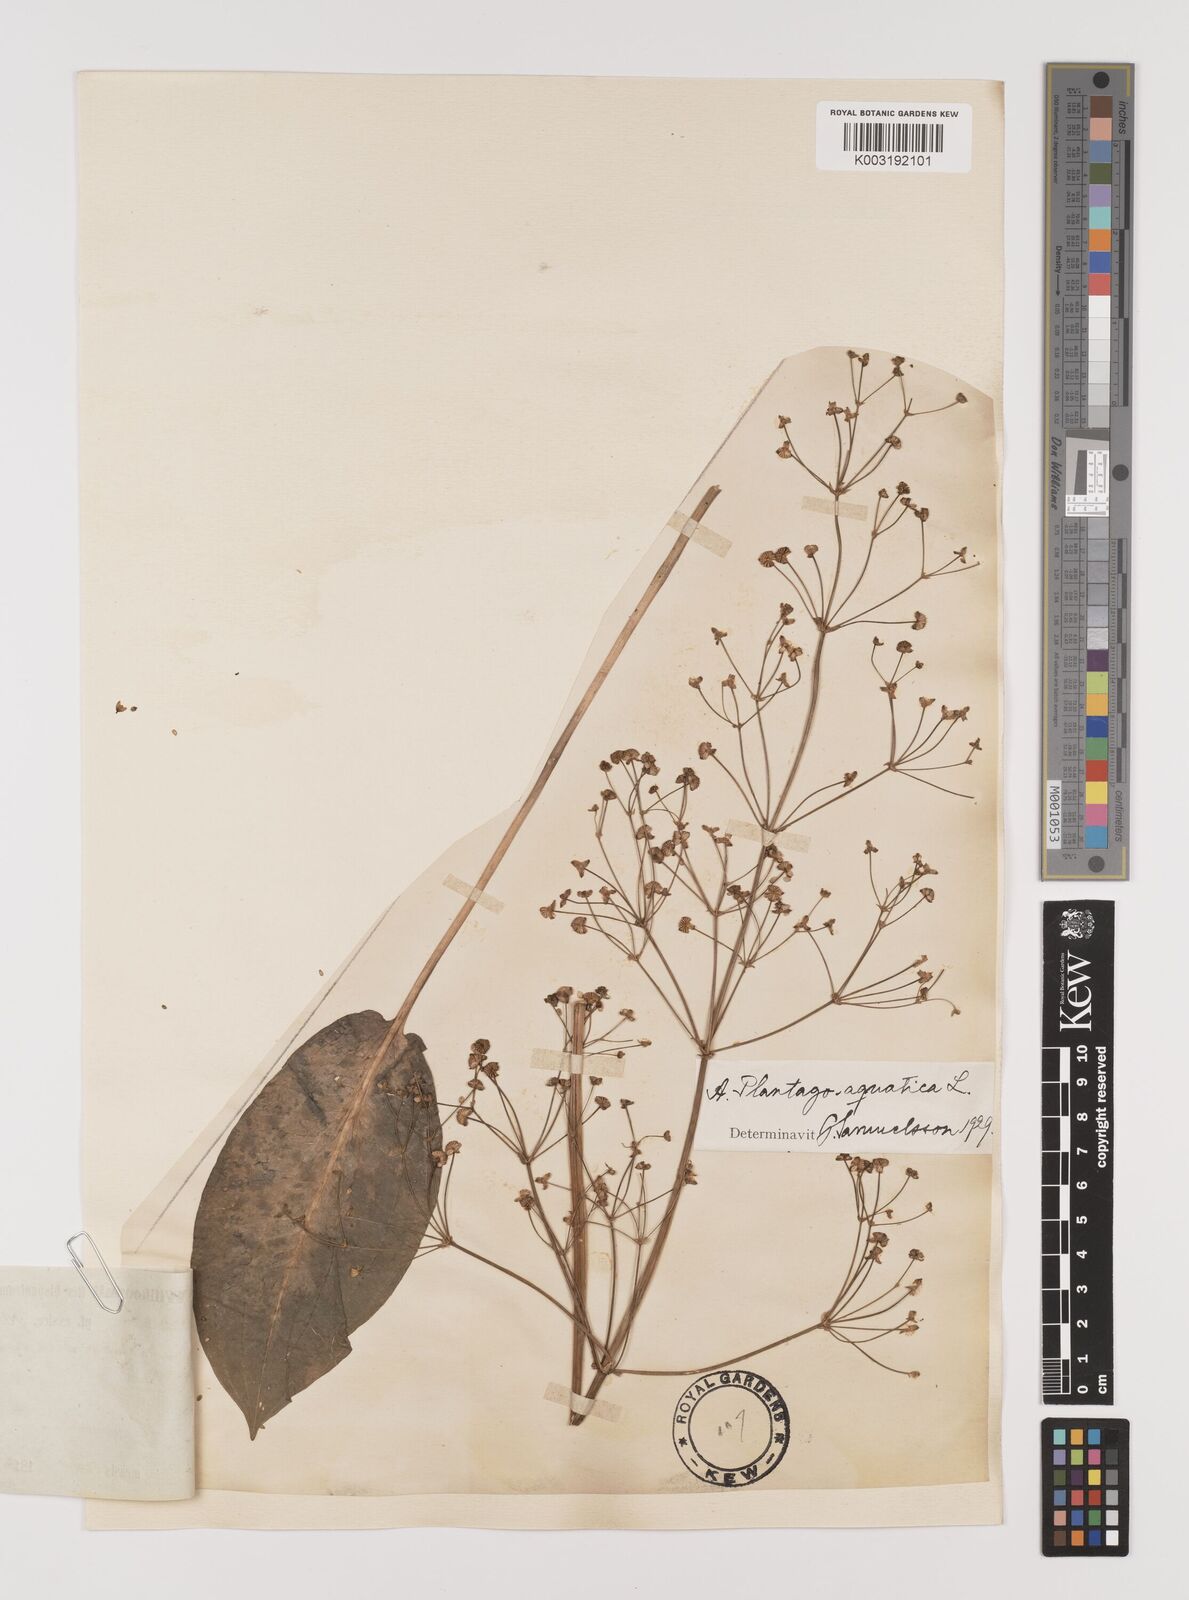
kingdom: Plantae
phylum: Tracheophyta
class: Liliopsida
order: Alismatales
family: Alismataceae
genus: Alisma
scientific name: Alisma plantago-aquatica
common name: Water-plantain
